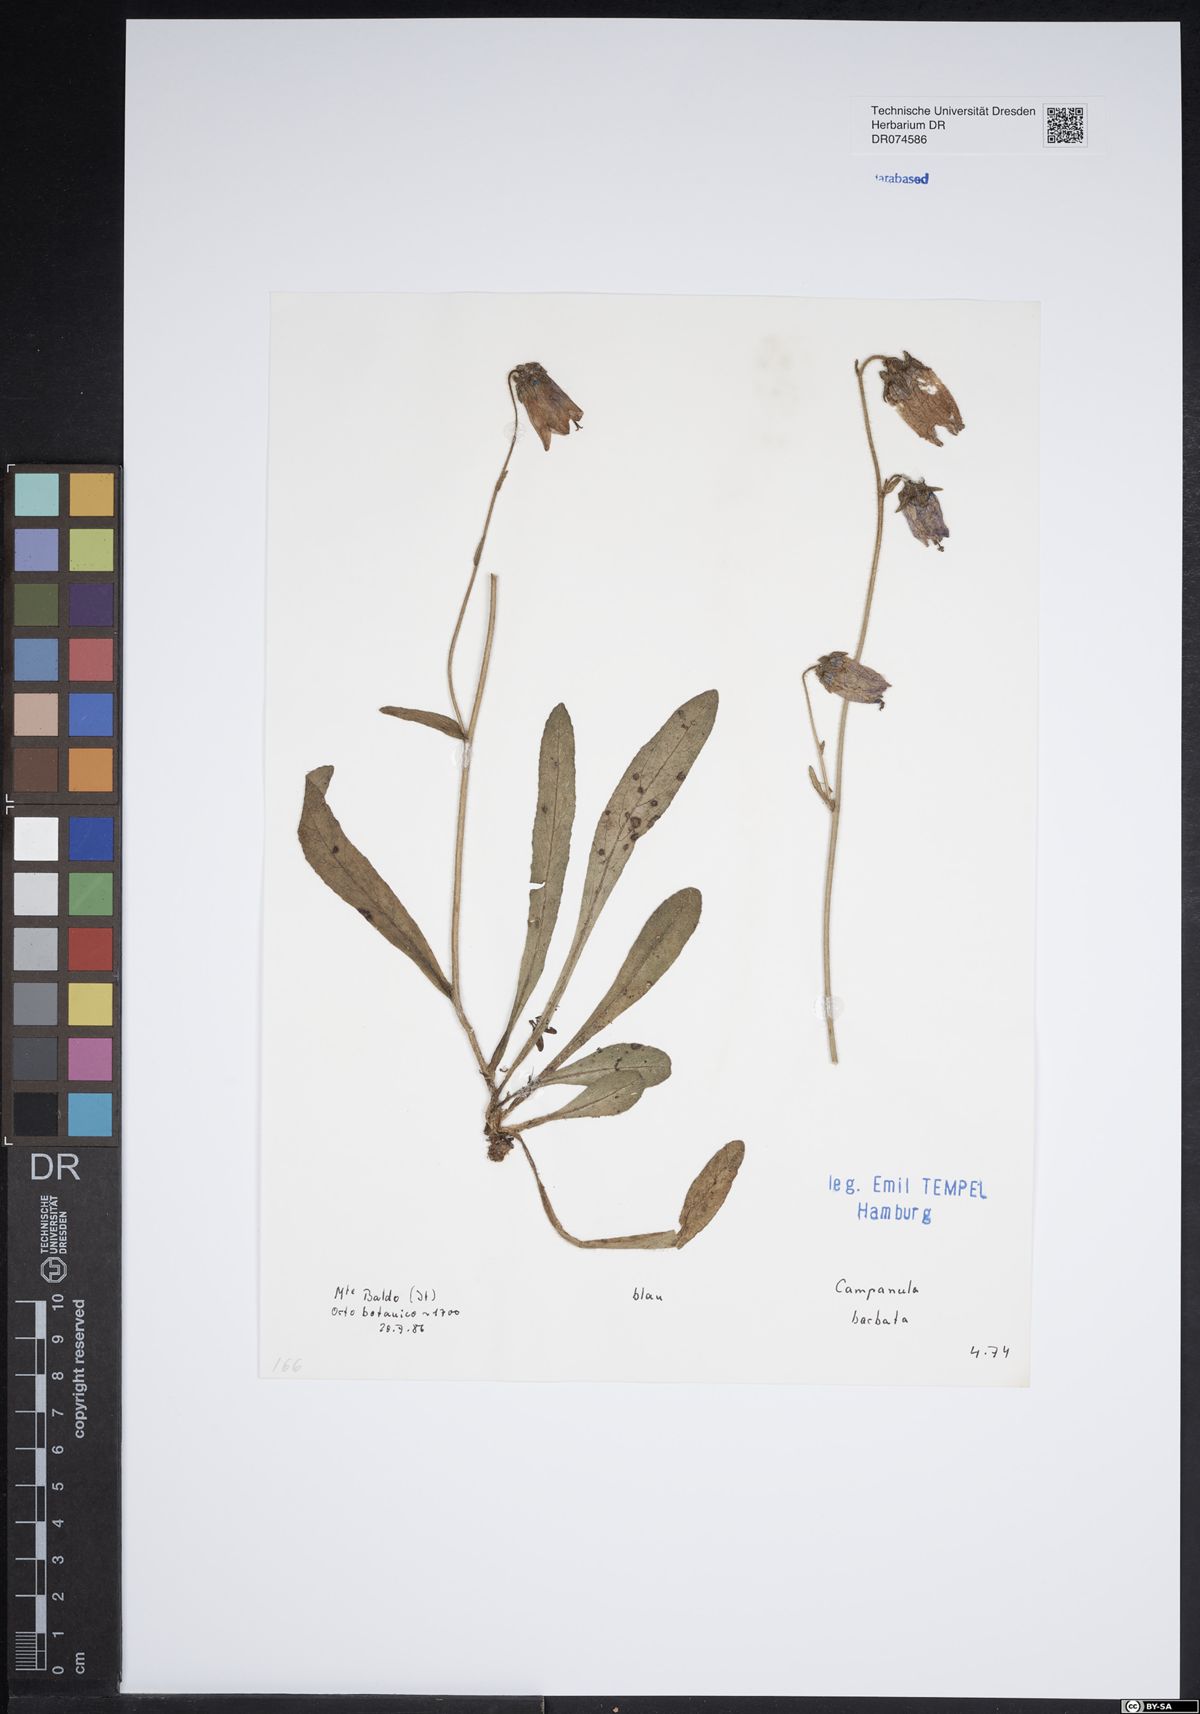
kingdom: Plantae
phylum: Tracheophyta
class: Magnoliopsida
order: Asterales
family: Campanulaceae
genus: Campanula
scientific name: Campanula barbata
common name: Bearded bellflower
